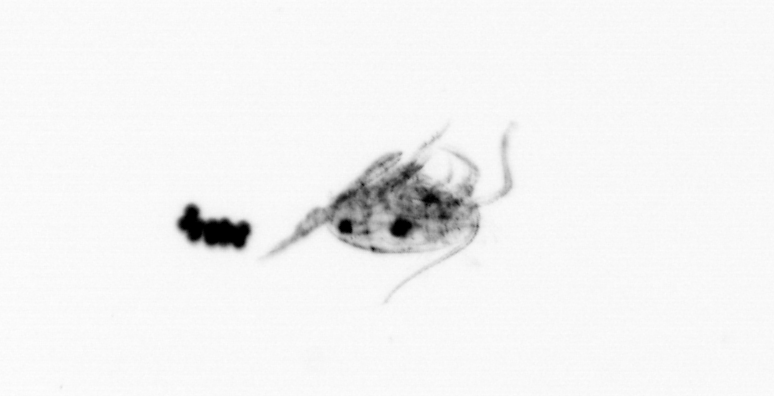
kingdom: Animalia
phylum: Arthropoda
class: Copepoda
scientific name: Copepoda
